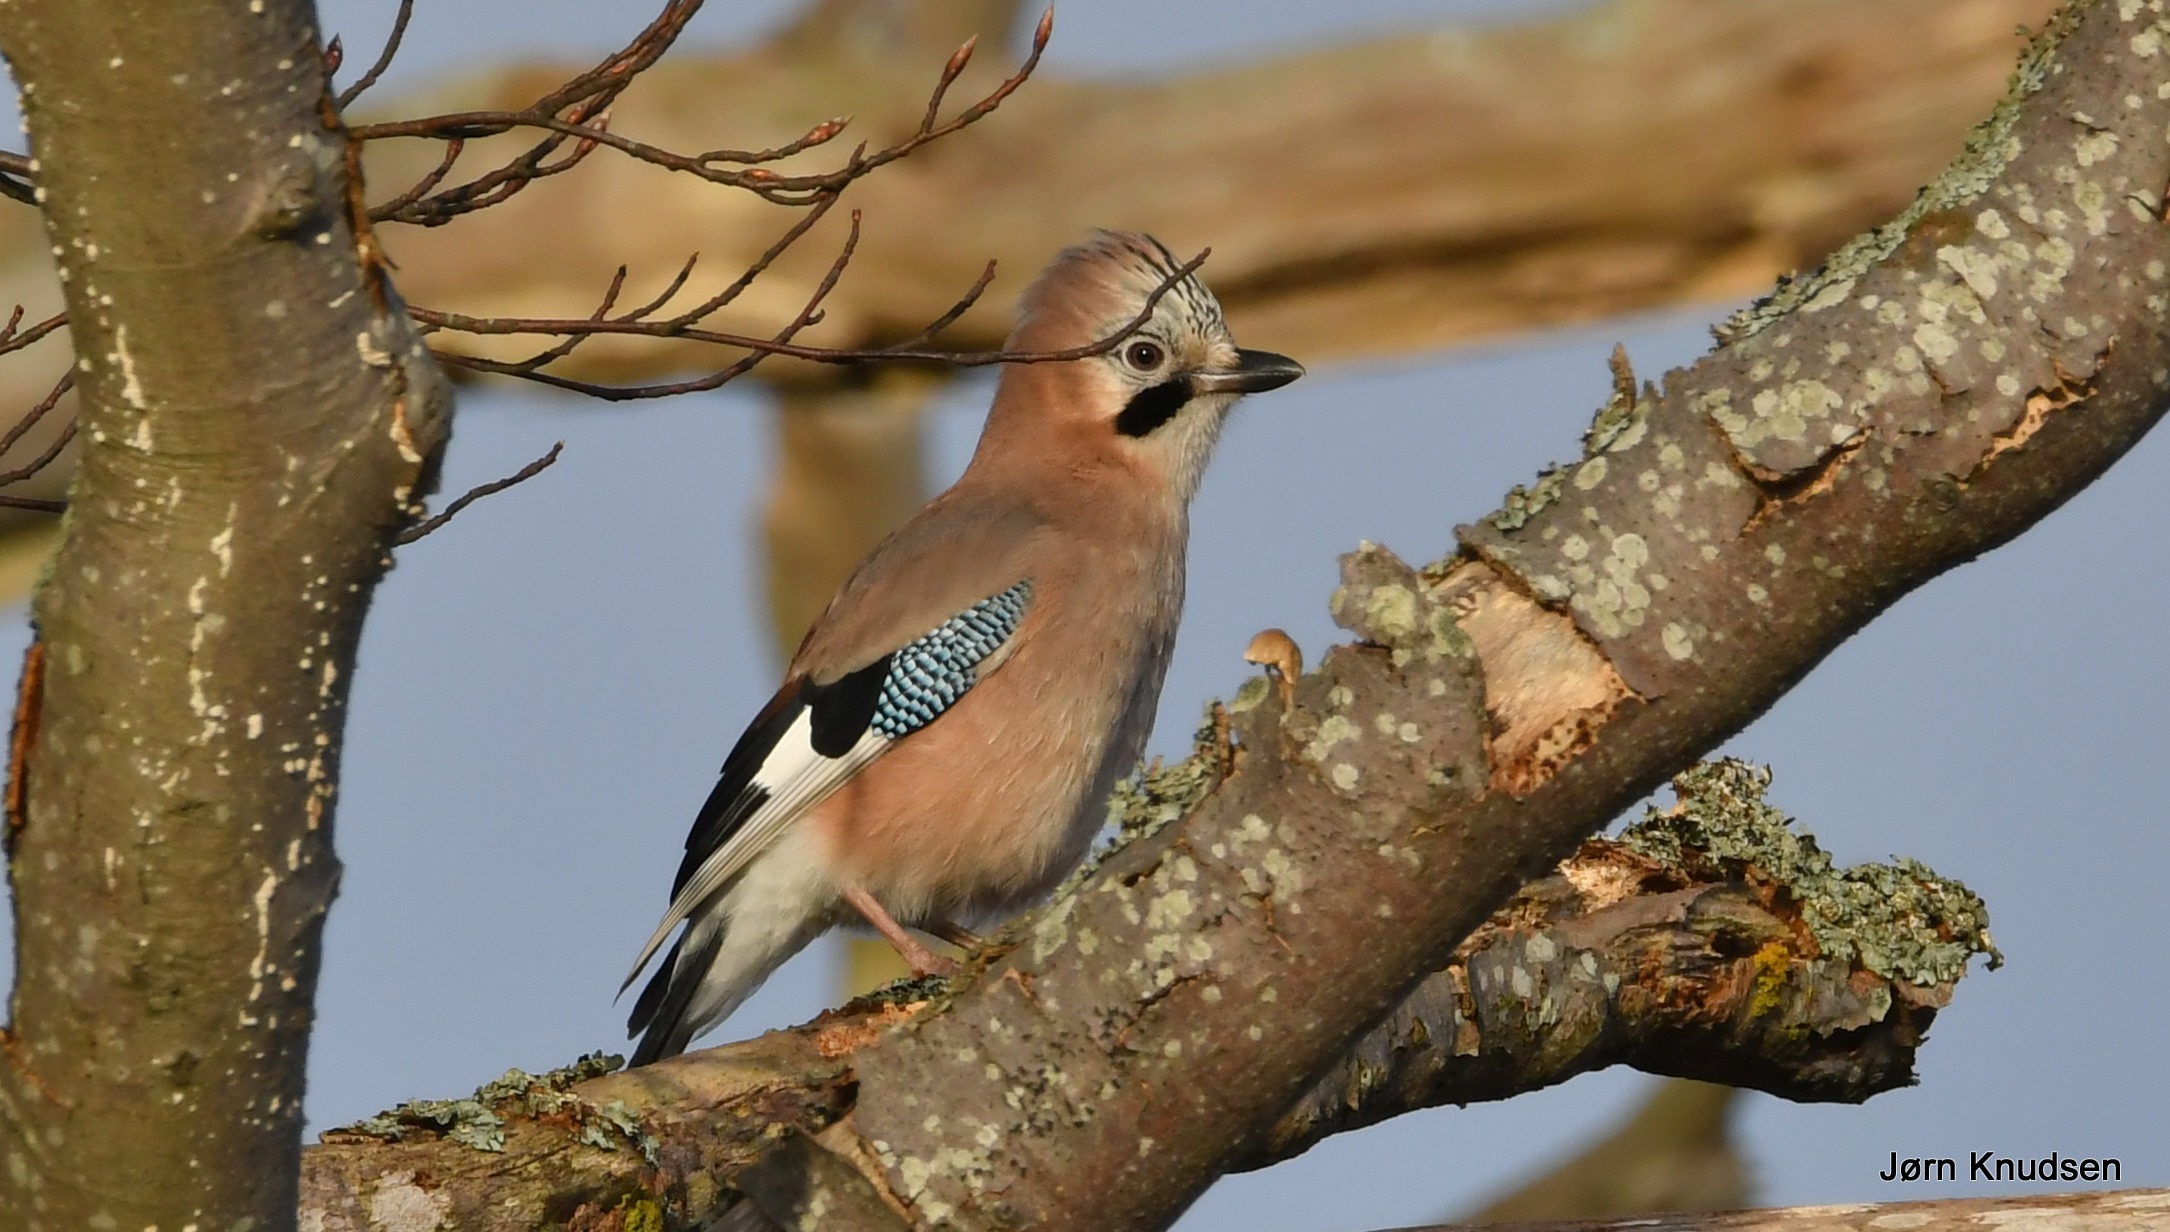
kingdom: Animalia
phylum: Chordata
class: Aves
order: Passeriformes
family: Corvidae
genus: Garrulus
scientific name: Garrulus glandarius
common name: Skovskade
